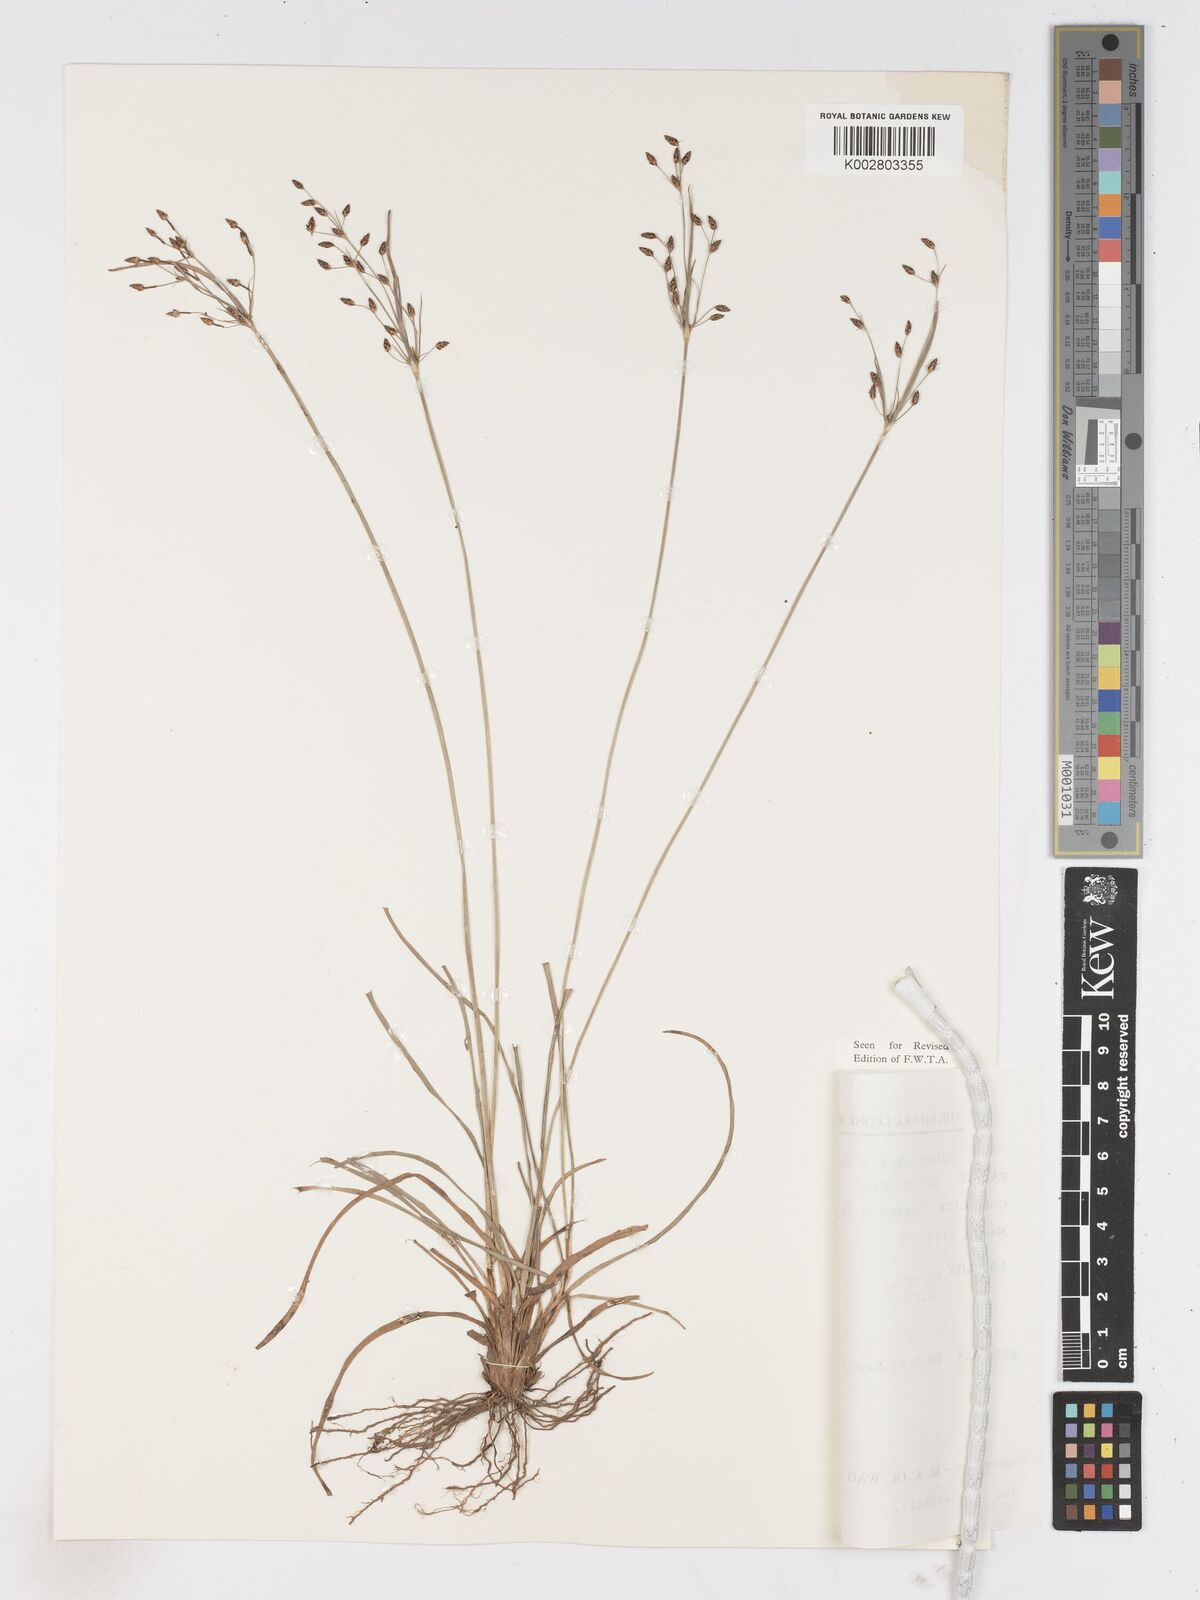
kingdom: Plantae
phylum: Tracheophyta
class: Liliopsida
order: Poales
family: Cyperaceae
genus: Fimbristylis
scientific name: Fimbristylis dichotoma
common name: Forked fimbry
